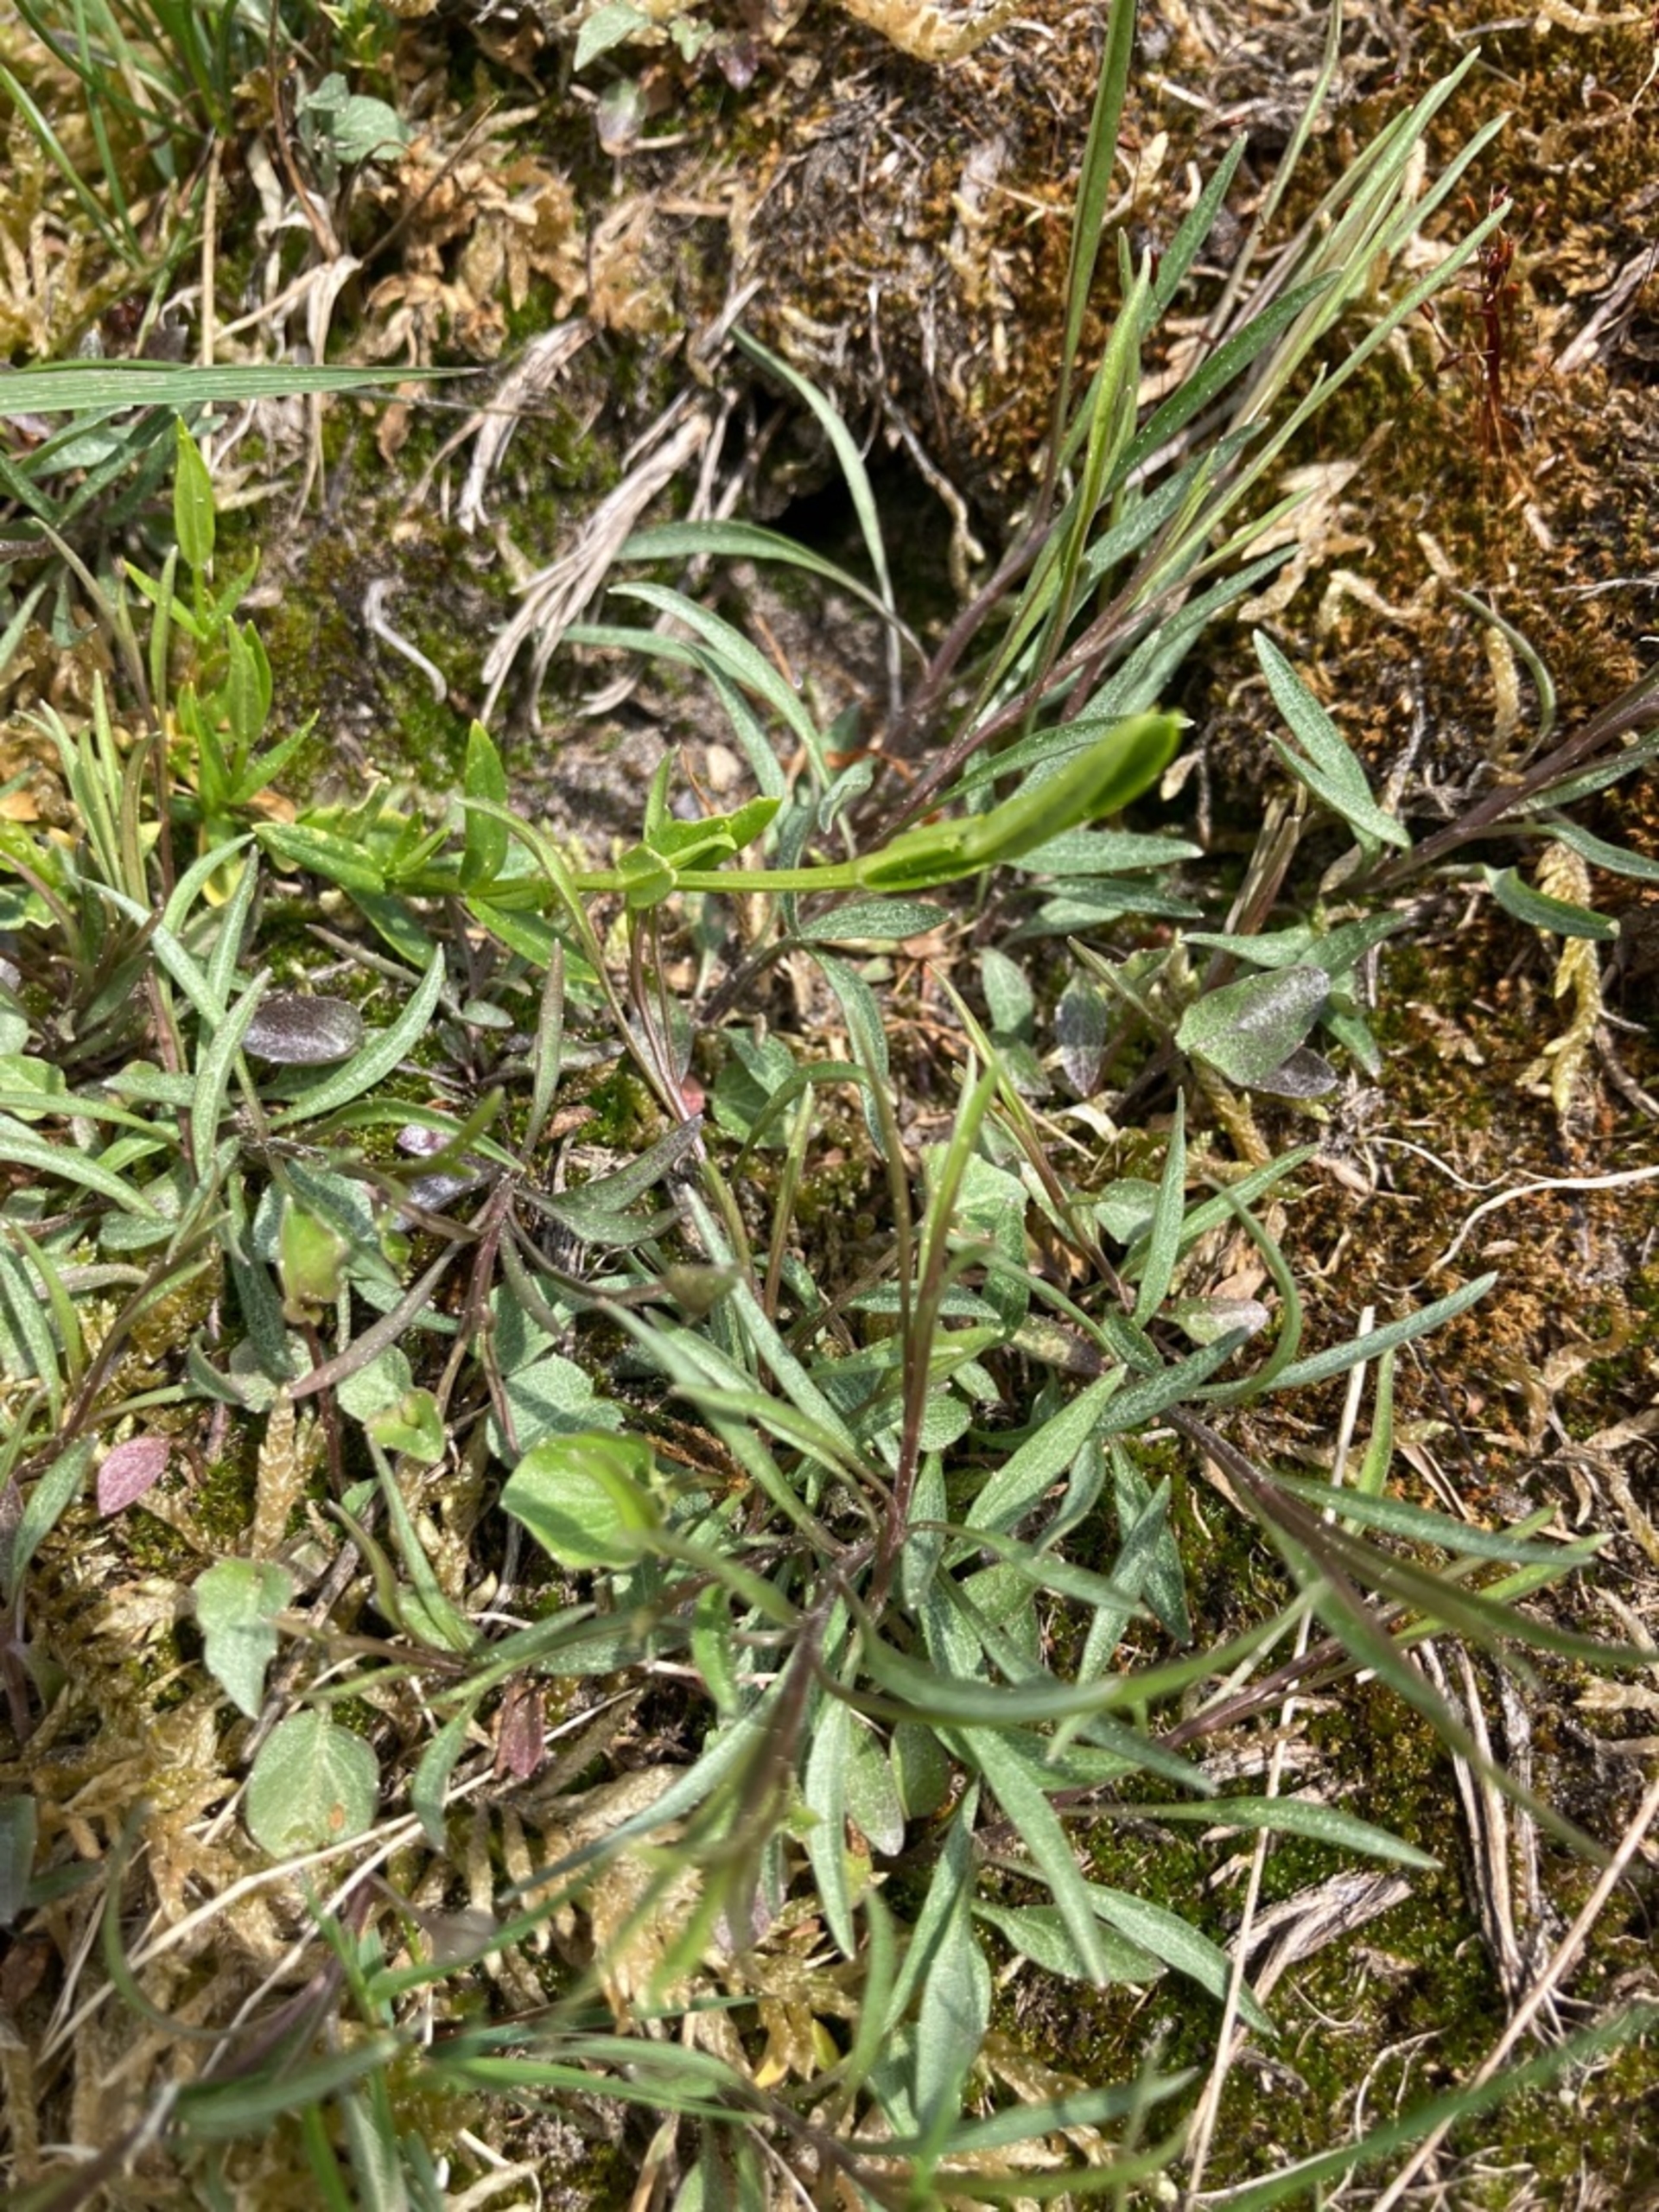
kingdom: Plantae
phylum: Tracheophyta
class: Magnoliopsida
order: Asterales
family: Campanulaceae
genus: Campanula
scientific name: Campanula rotundifolia
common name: Liden klokke
